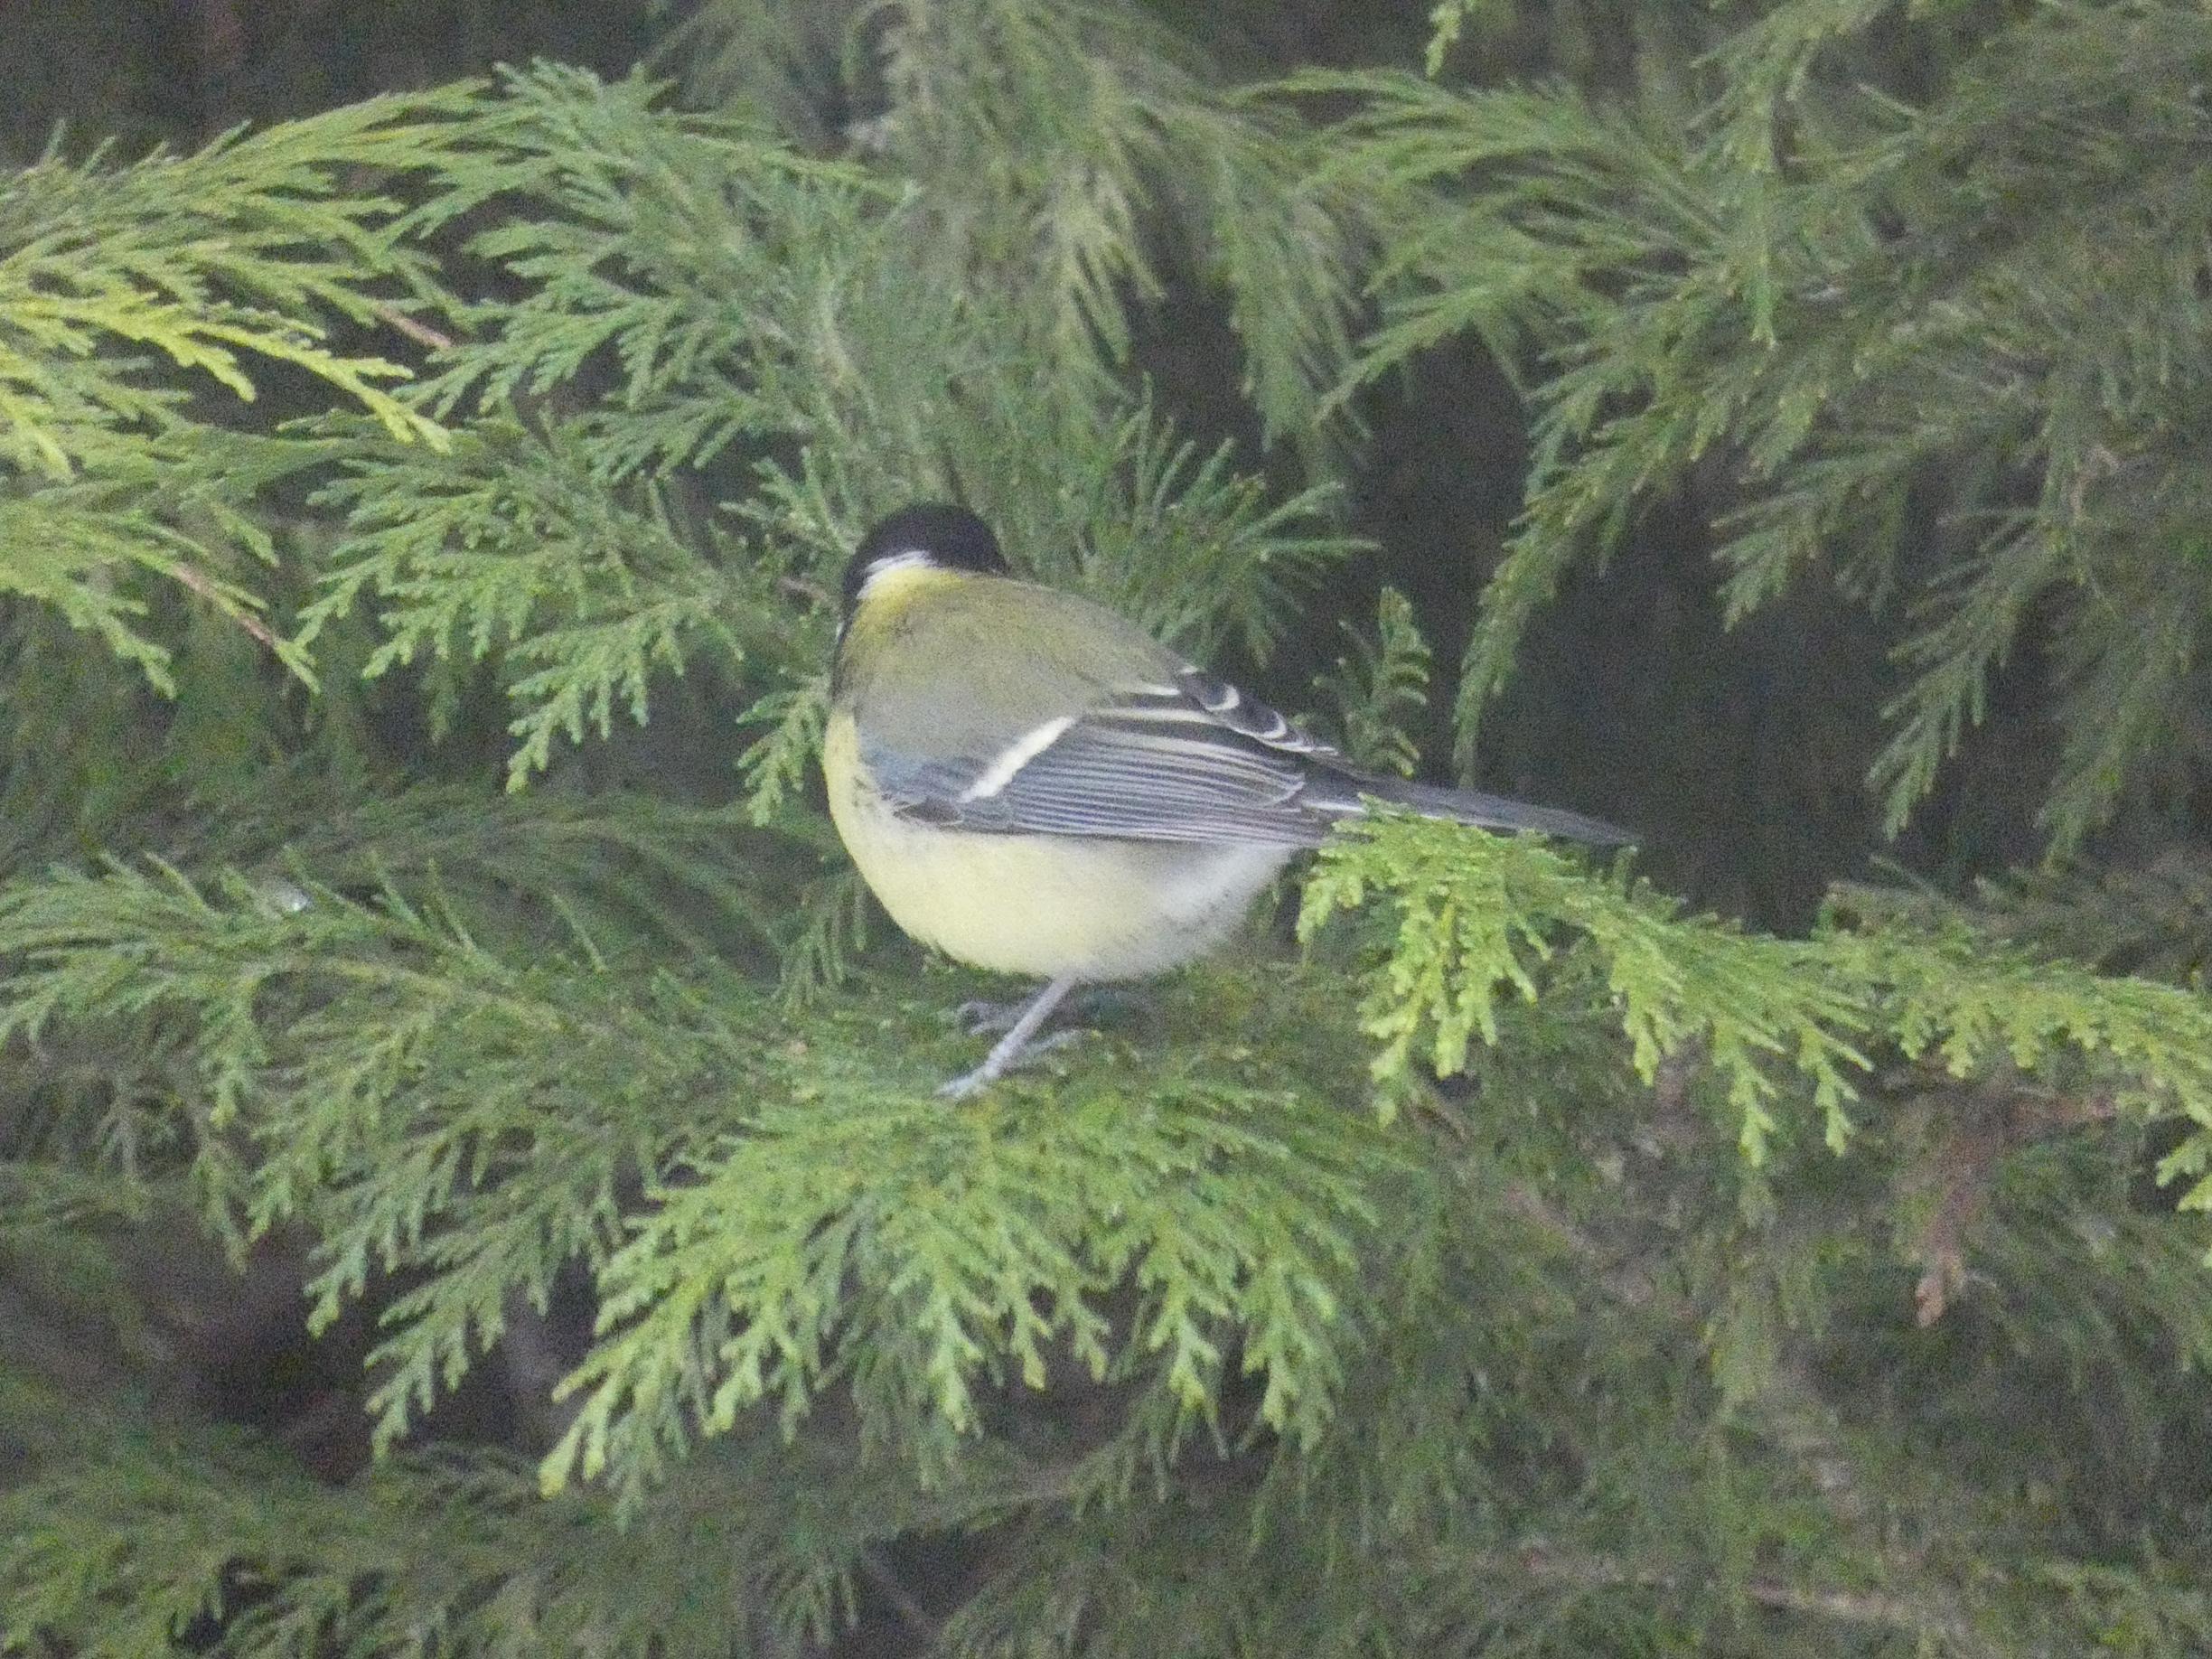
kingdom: Animalia
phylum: Chordata
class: Aves
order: Passeriformes
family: Paridae
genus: Parus
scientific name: Parus major
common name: Musvit
